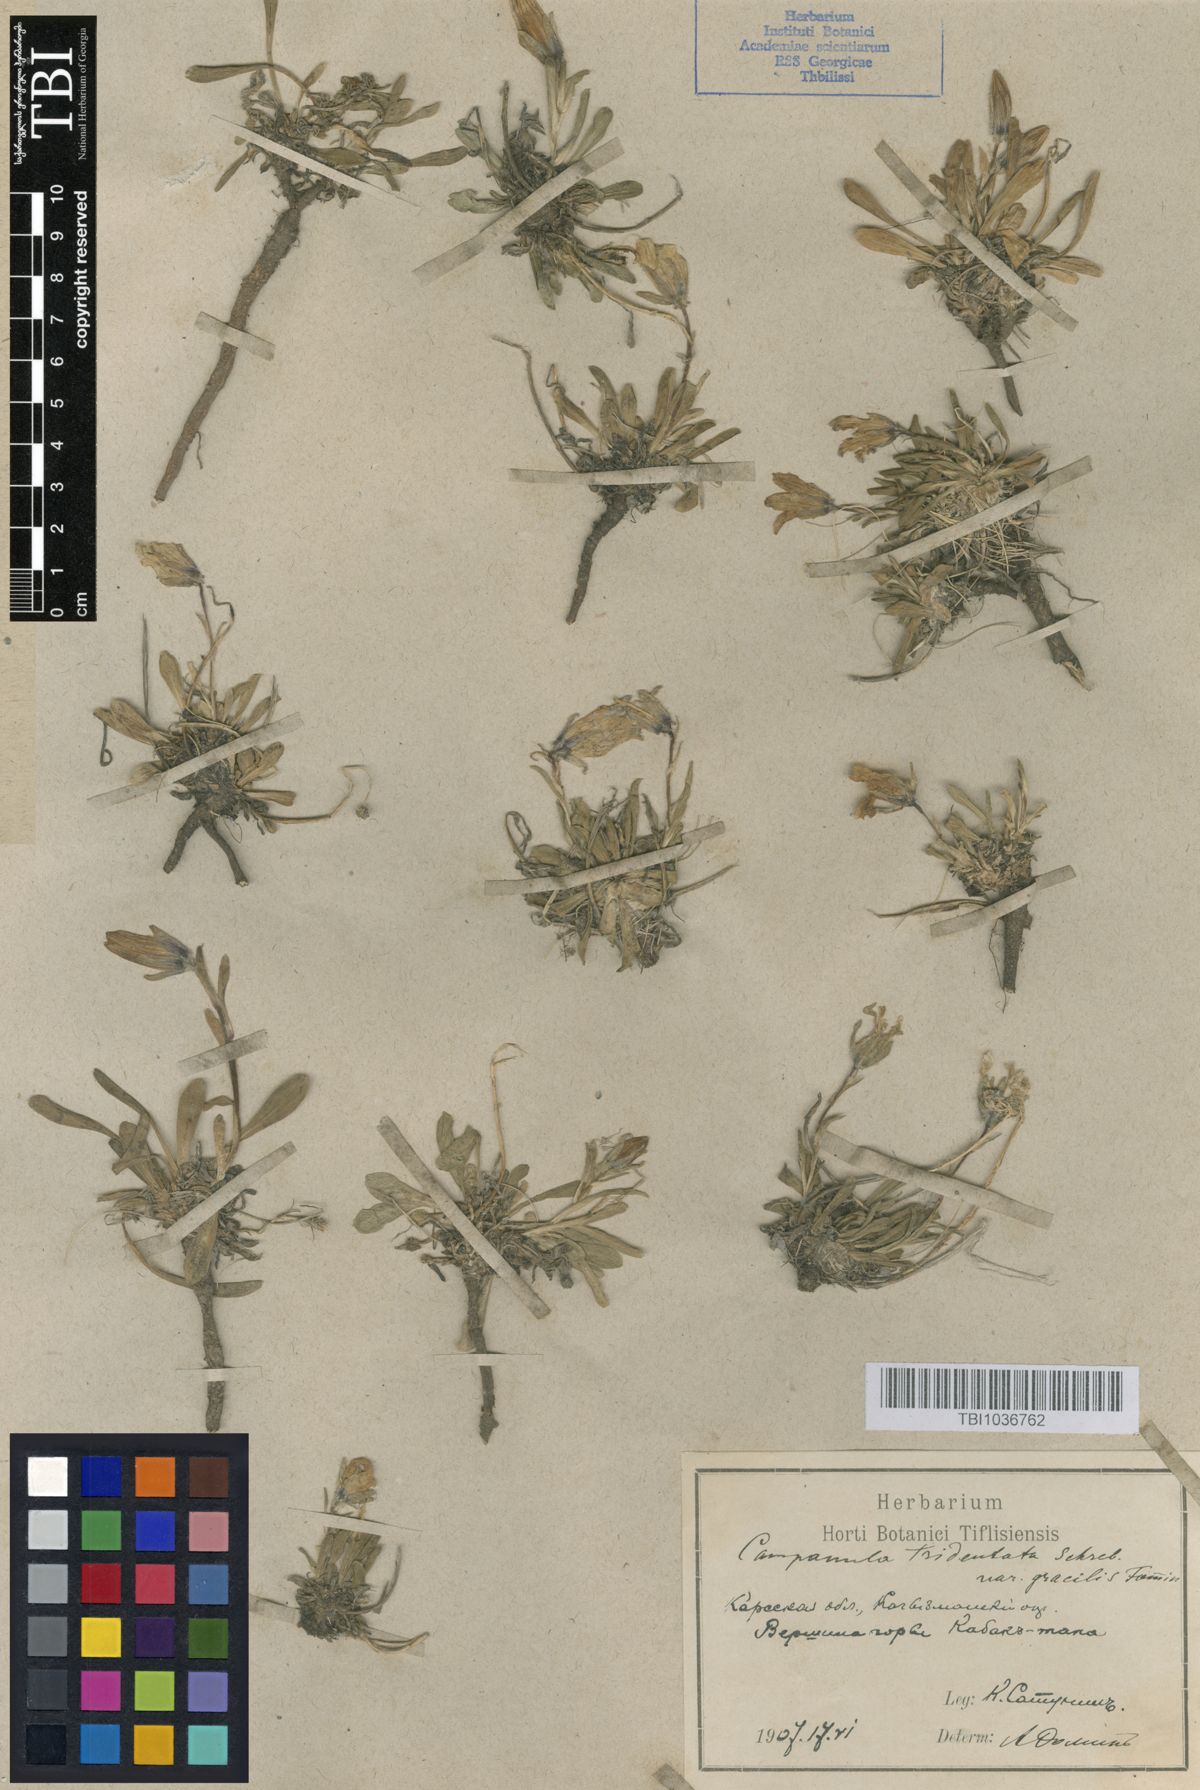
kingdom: Plantae
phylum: Tracheophyta
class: Magnoliopsida
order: Asterales
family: Campanulaceae
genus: Campanula
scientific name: Campanula tridentata
